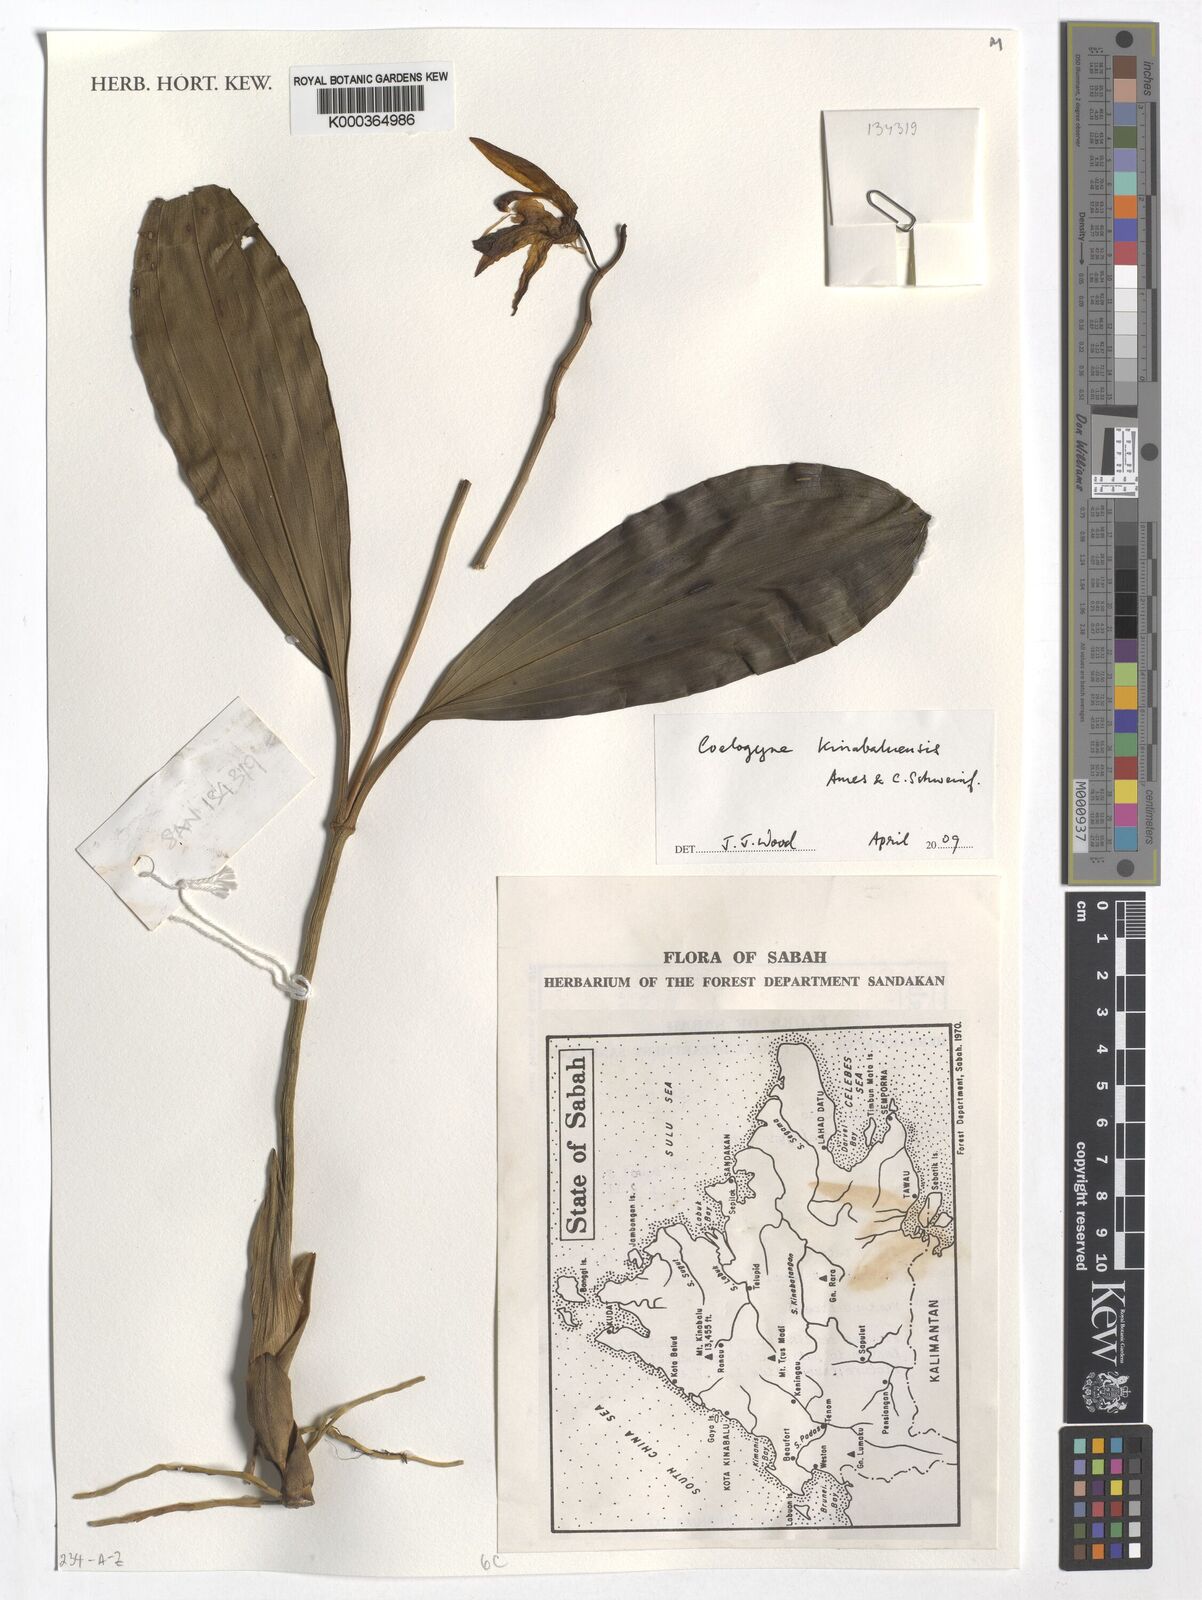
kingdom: Plantae
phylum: Tracheophyta
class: Liliopsida
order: Asparagales
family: Orchidaceae
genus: Coelogyne
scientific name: Coelogyne kinabaluensis
